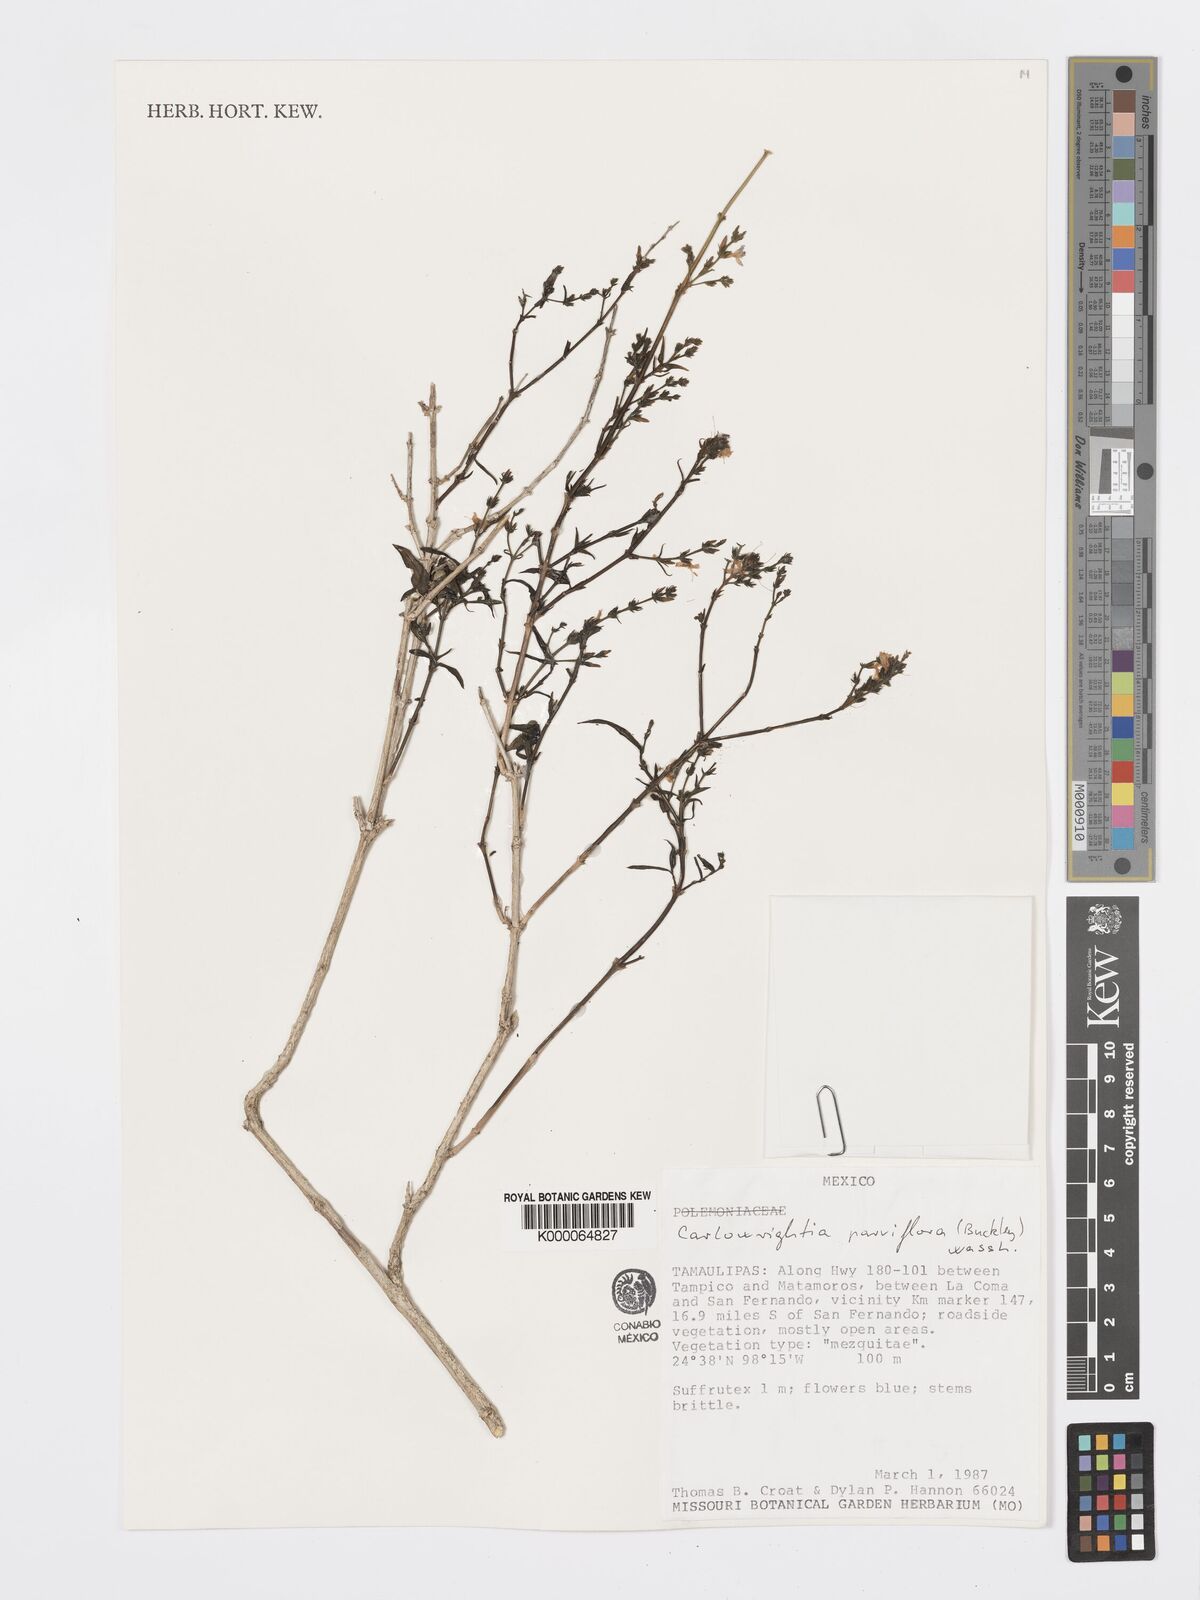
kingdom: Plantae
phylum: Tracheophyta
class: Magnoliopsida
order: Lamiales
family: Acanthaceae
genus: Carlowrightia
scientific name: Carlowrightia parviflora
